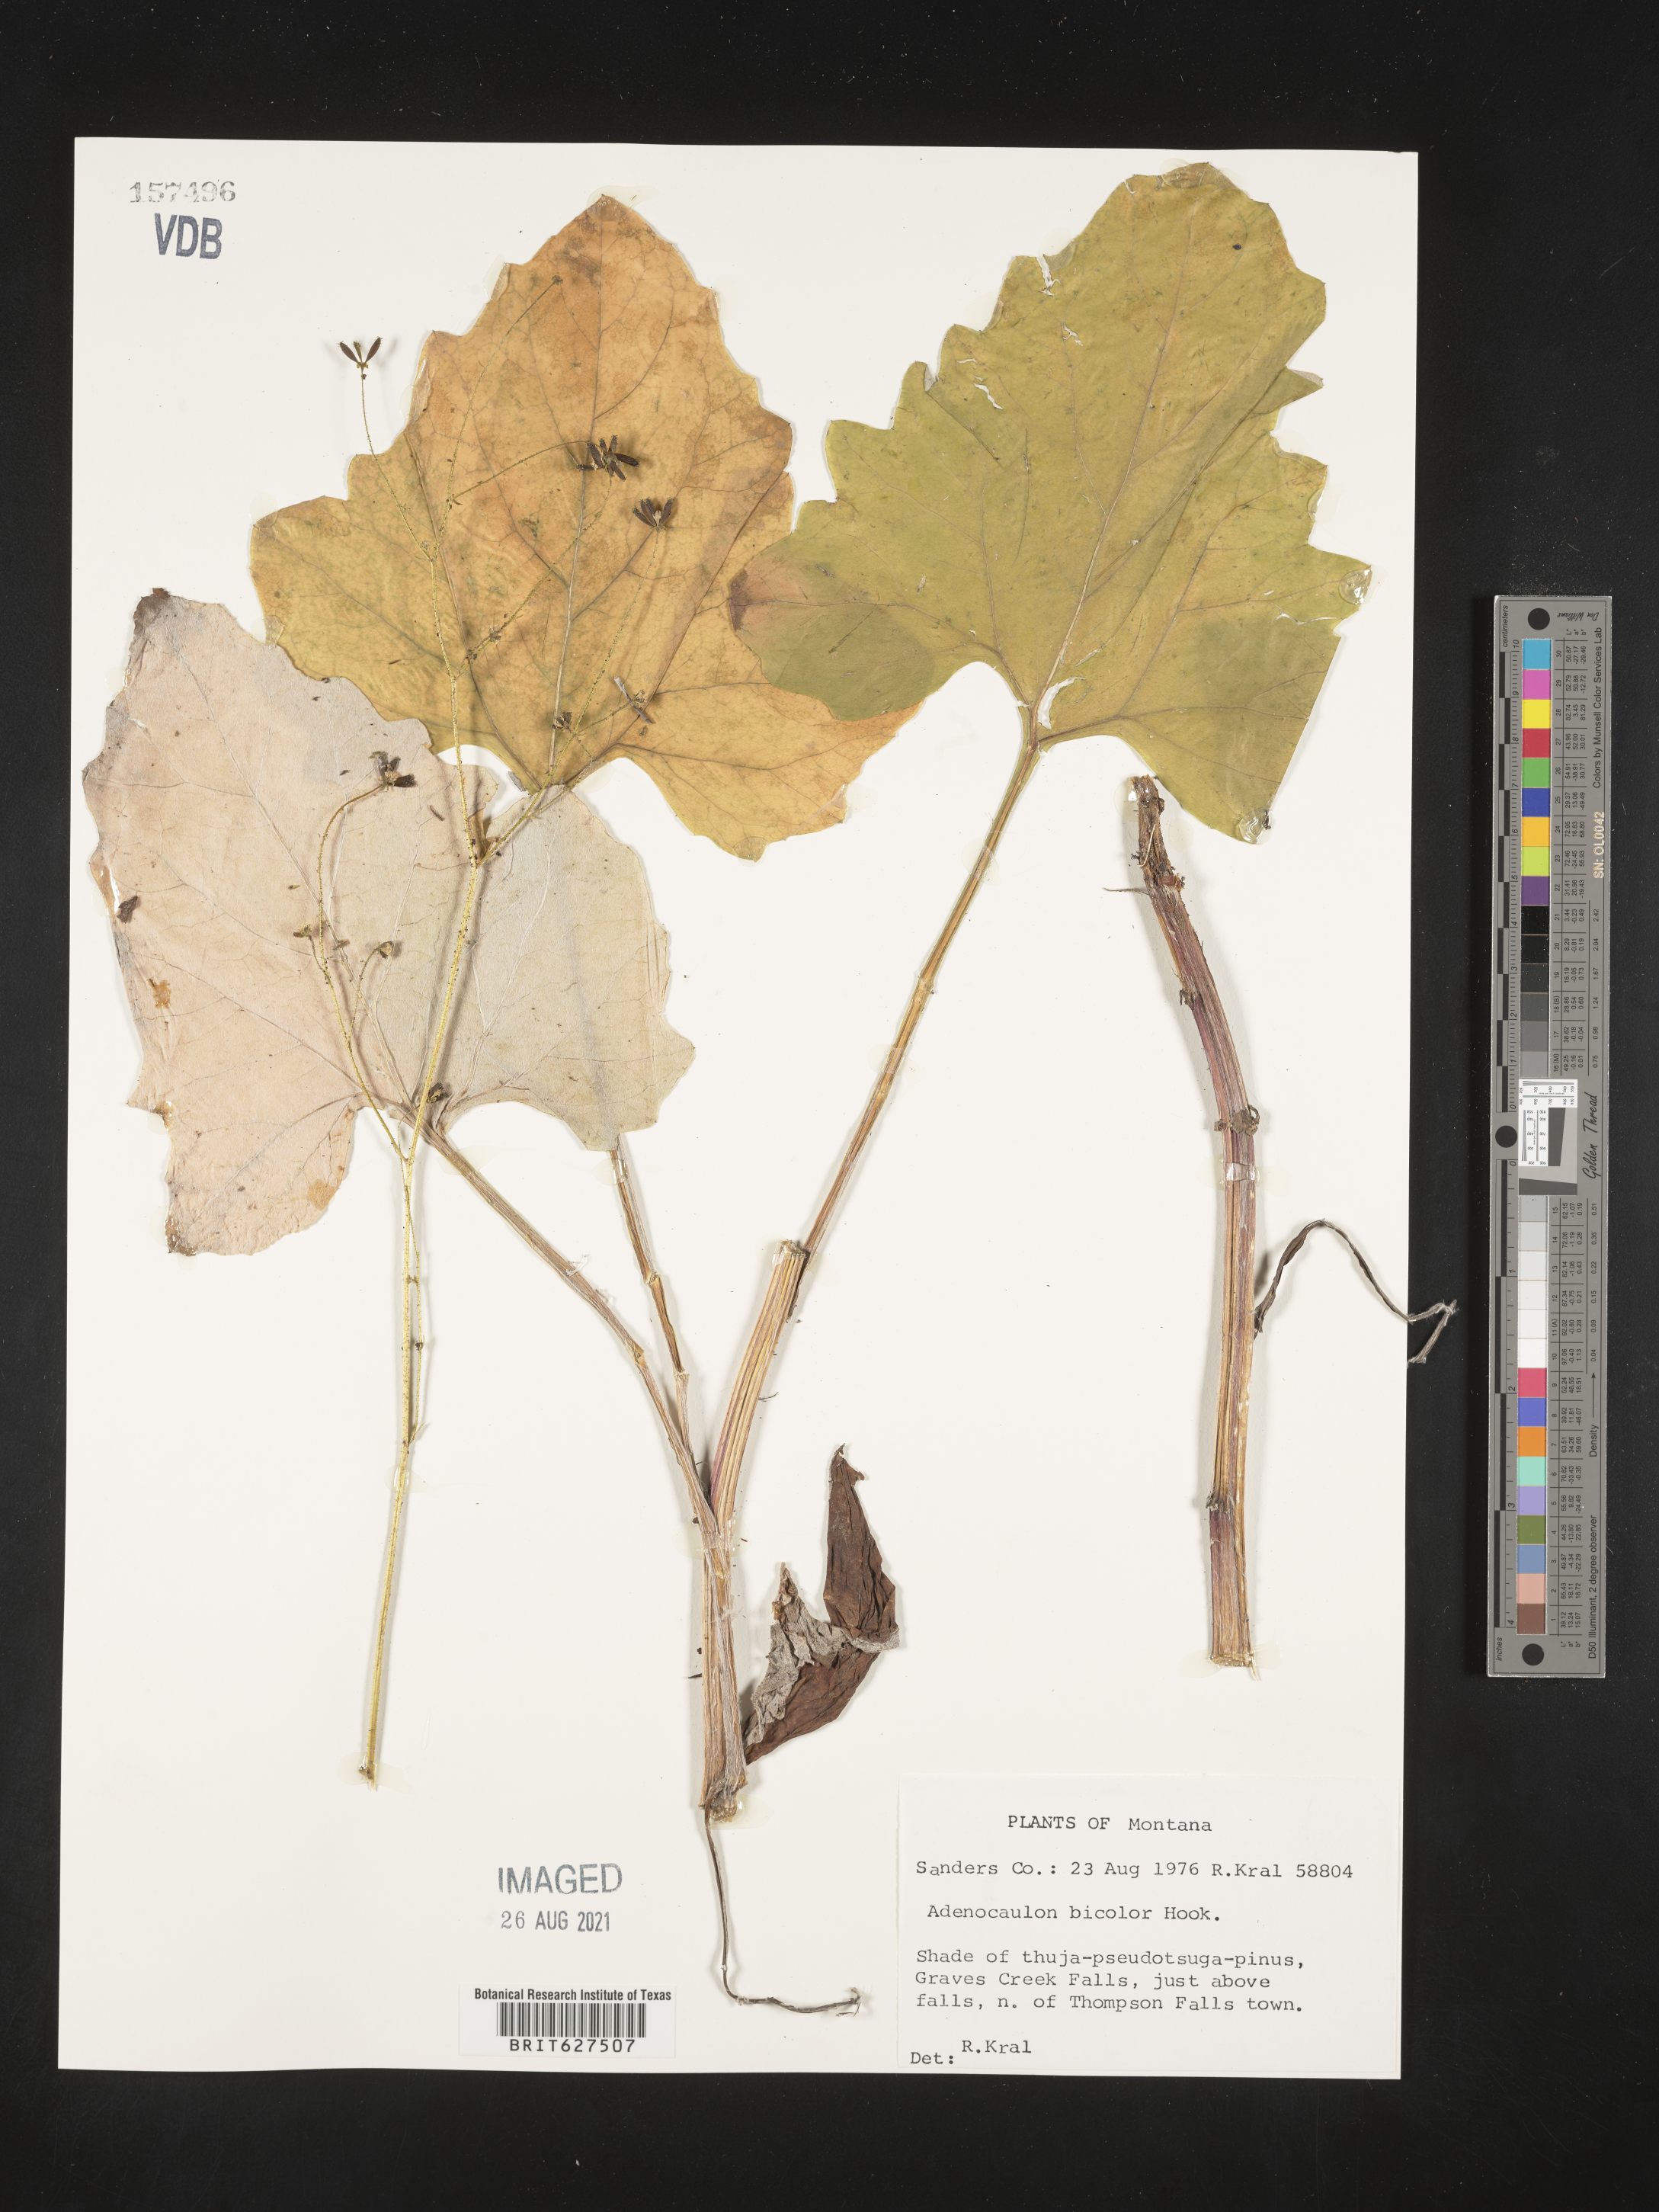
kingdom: Plantae
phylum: Tracheophyta
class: Magnoliopsida
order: Asterales
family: Asteraceae
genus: Adenocaulon
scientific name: Adenocaulon bicolor
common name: Trailplant
